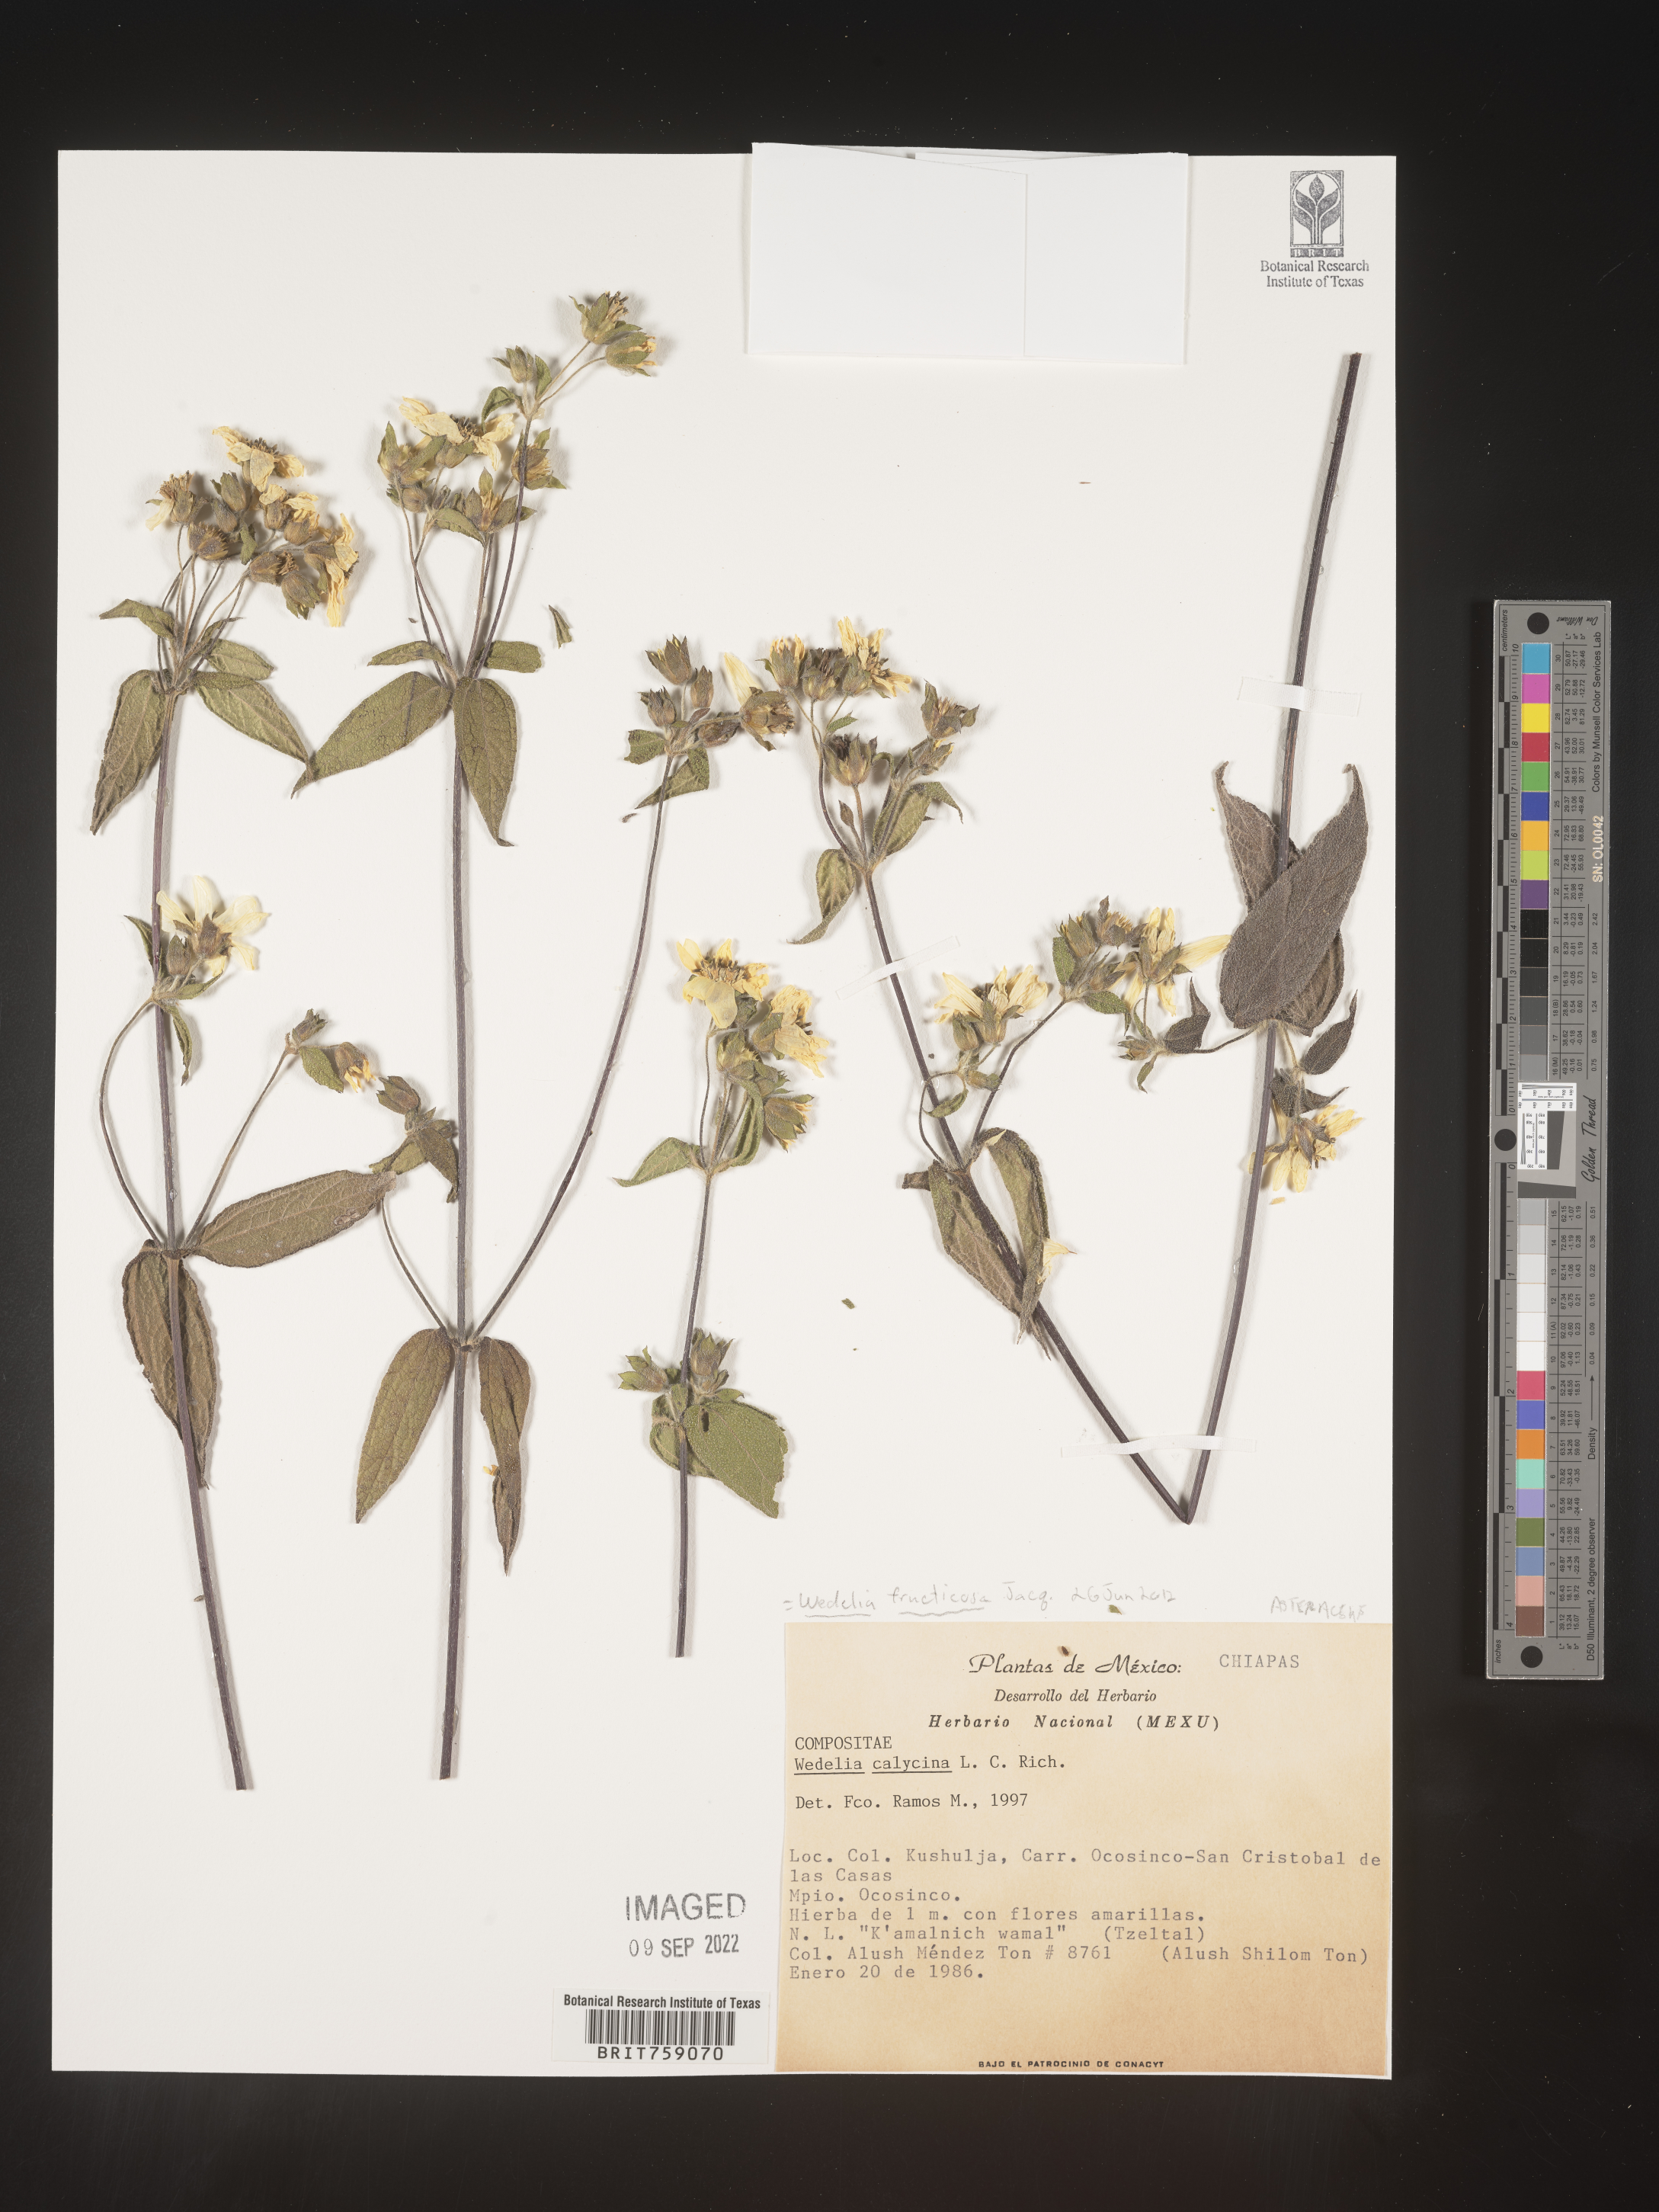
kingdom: Plantae
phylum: Tracheophyta
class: Magnoliopsida
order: Asterales
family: Asteraceae
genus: Wedelia
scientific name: Wedelia
